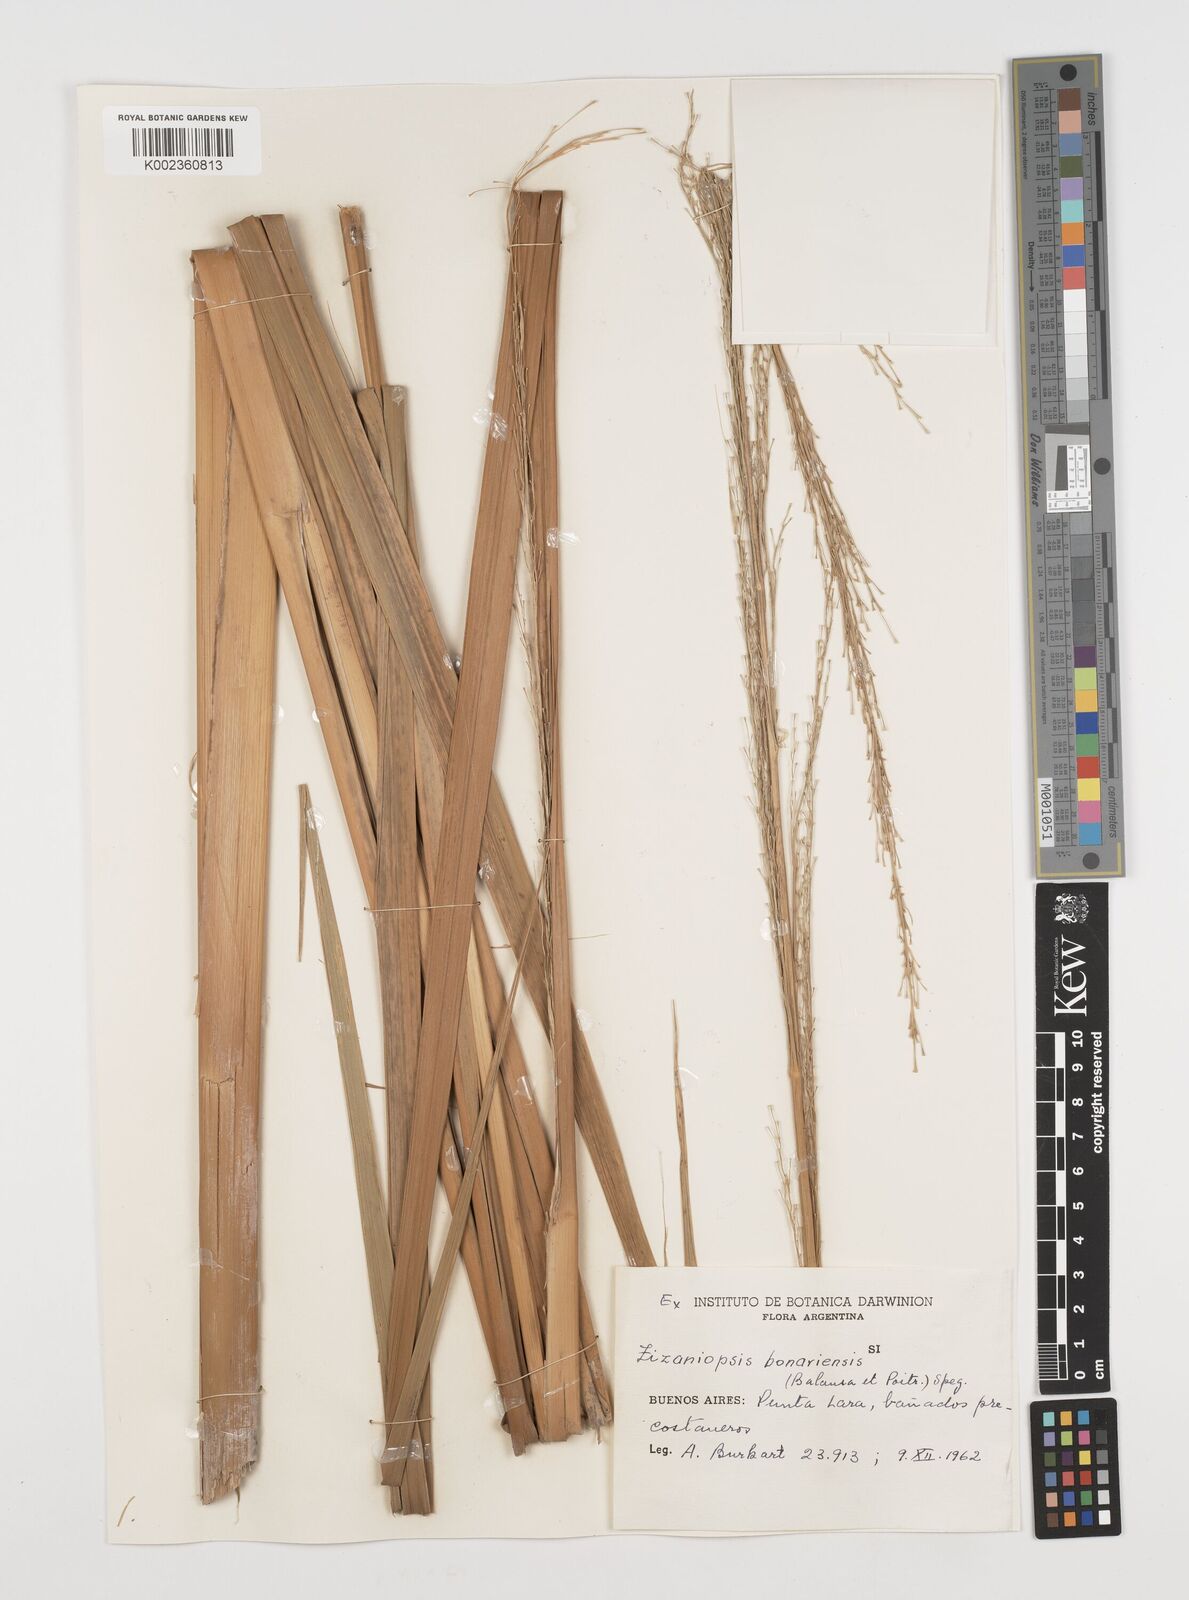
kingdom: Plantae
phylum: Tracheophyta
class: Liliopsida
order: Poales
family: Poaceae
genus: Zizaniopsis
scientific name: Zizaniopsis bonariensis
